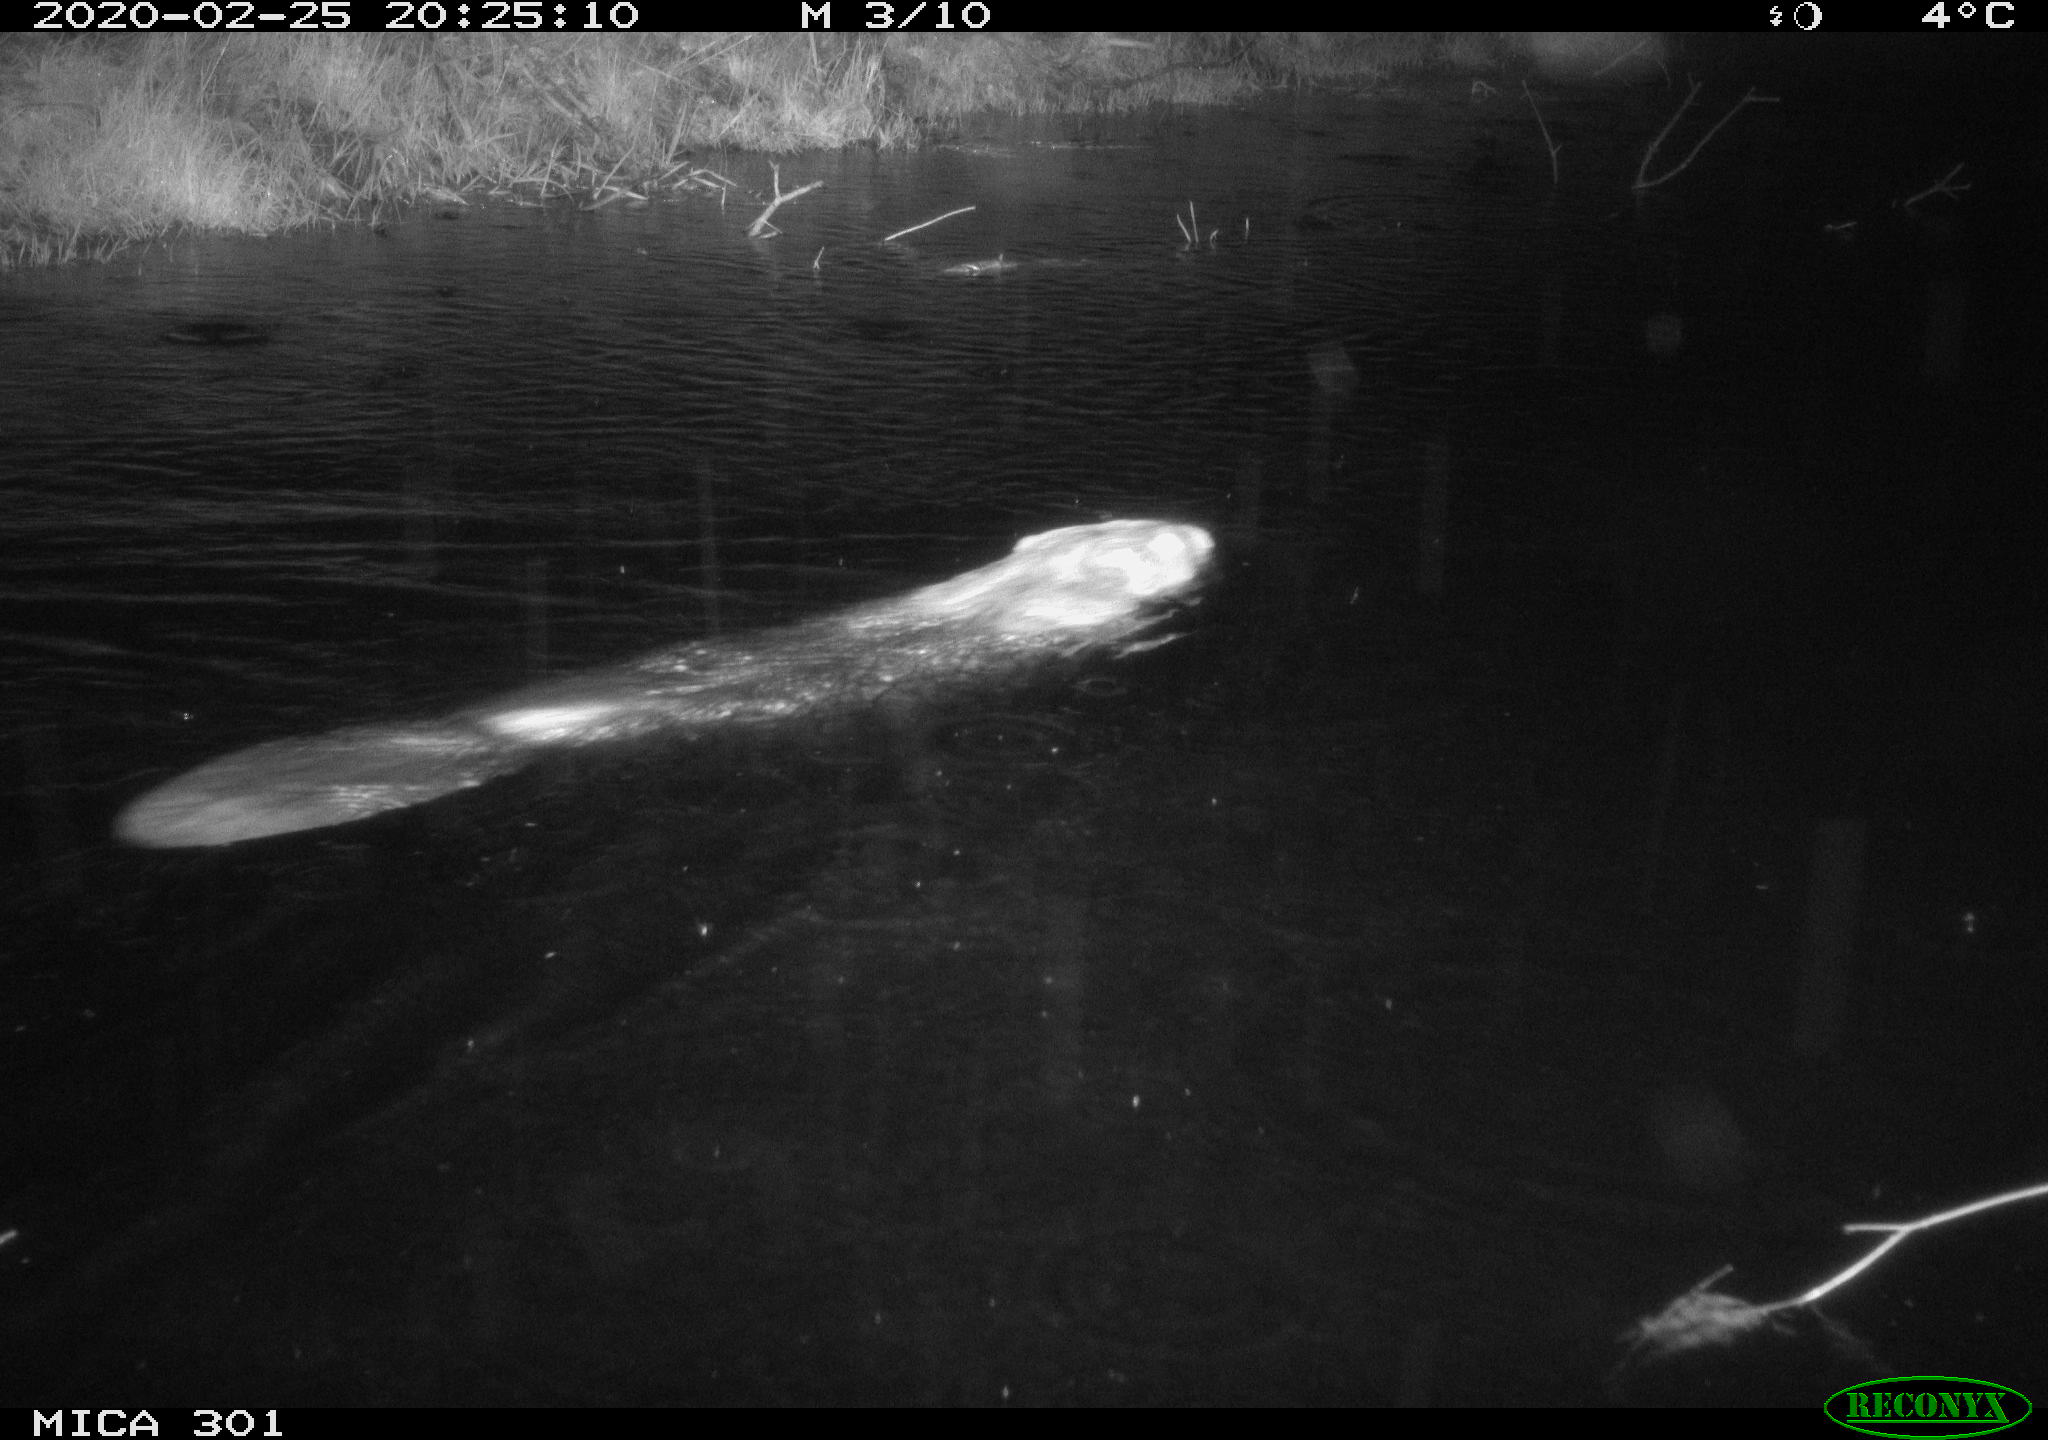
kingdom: Animalia
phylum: Chordata
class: Mammalia
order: Rodentia
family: Castoridae
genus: Castor
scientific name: Castor fiber
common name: Eurasian beaver
